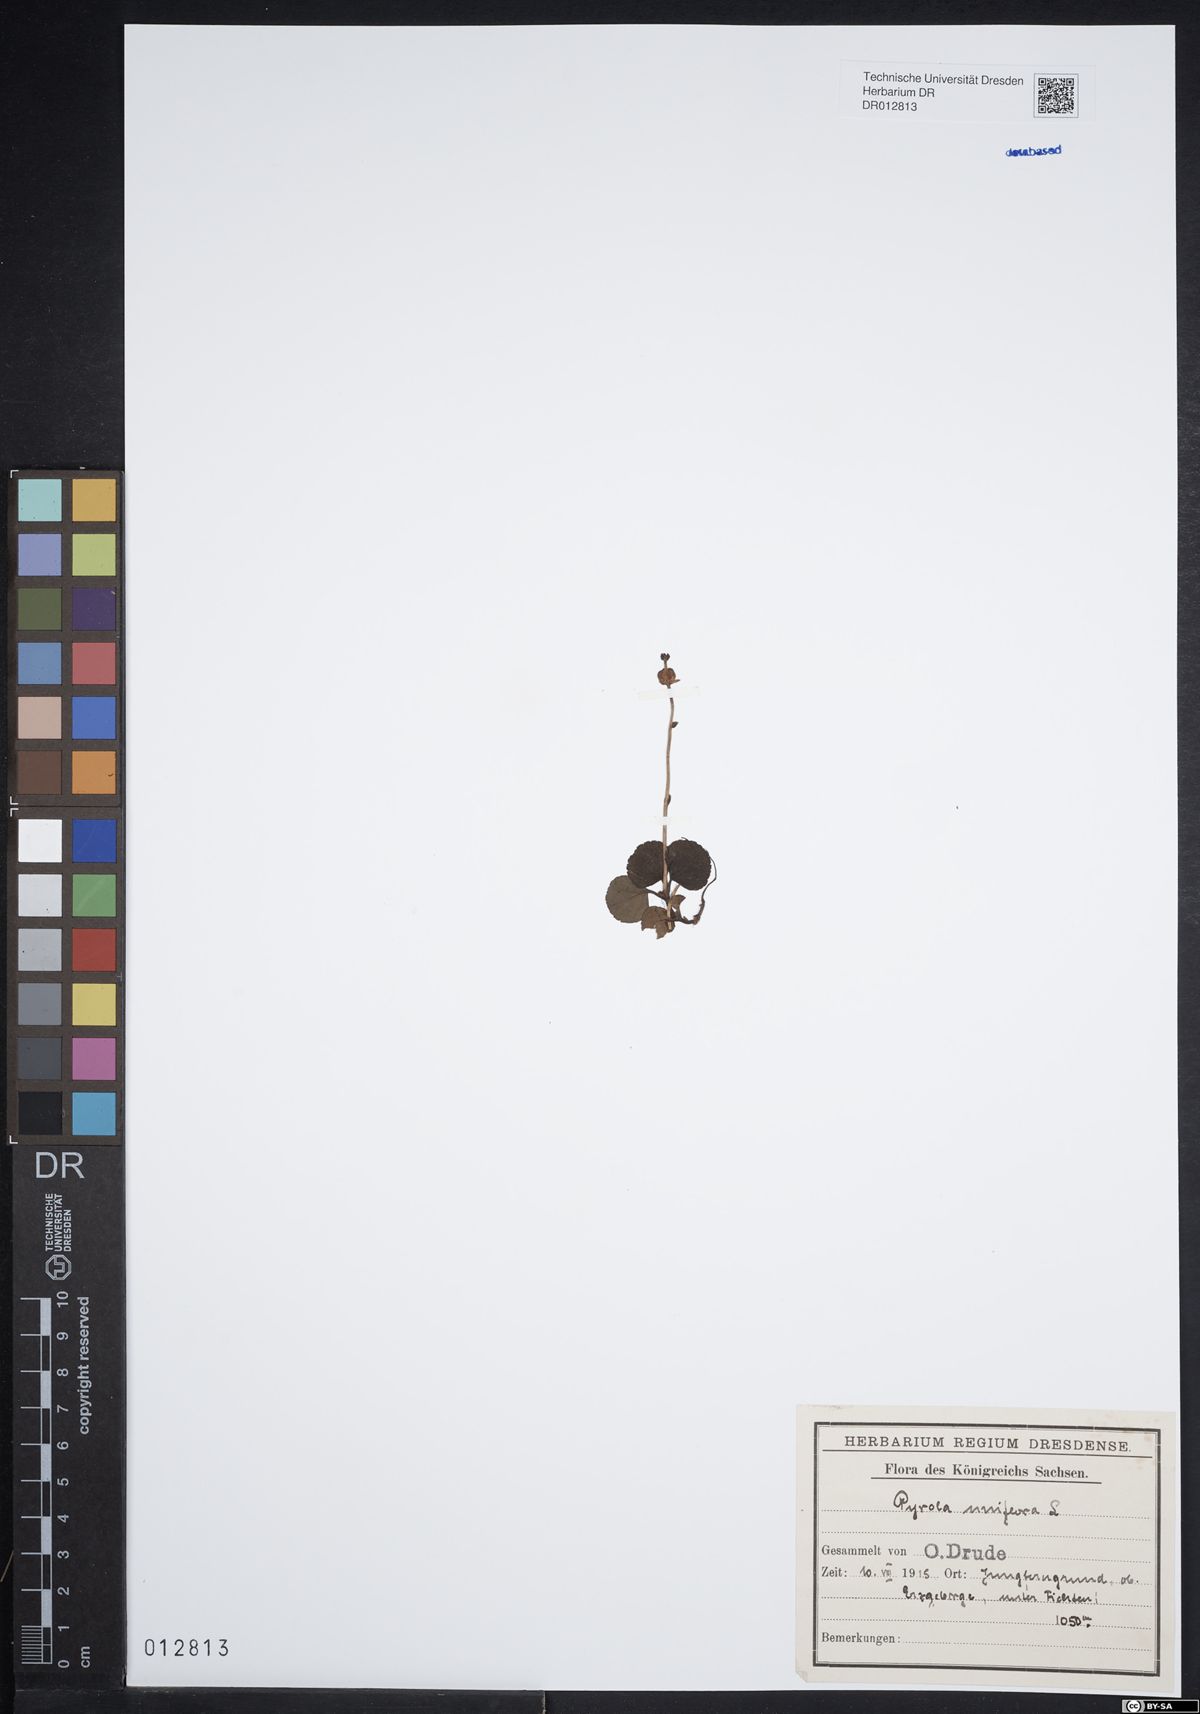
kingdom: Plantae
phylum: Tracheophyta
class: Magnoliopsida
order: Ericales
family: Ericaceae
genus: Moneses
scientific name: Moneses uniflora
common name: One-flowered wintergreen
